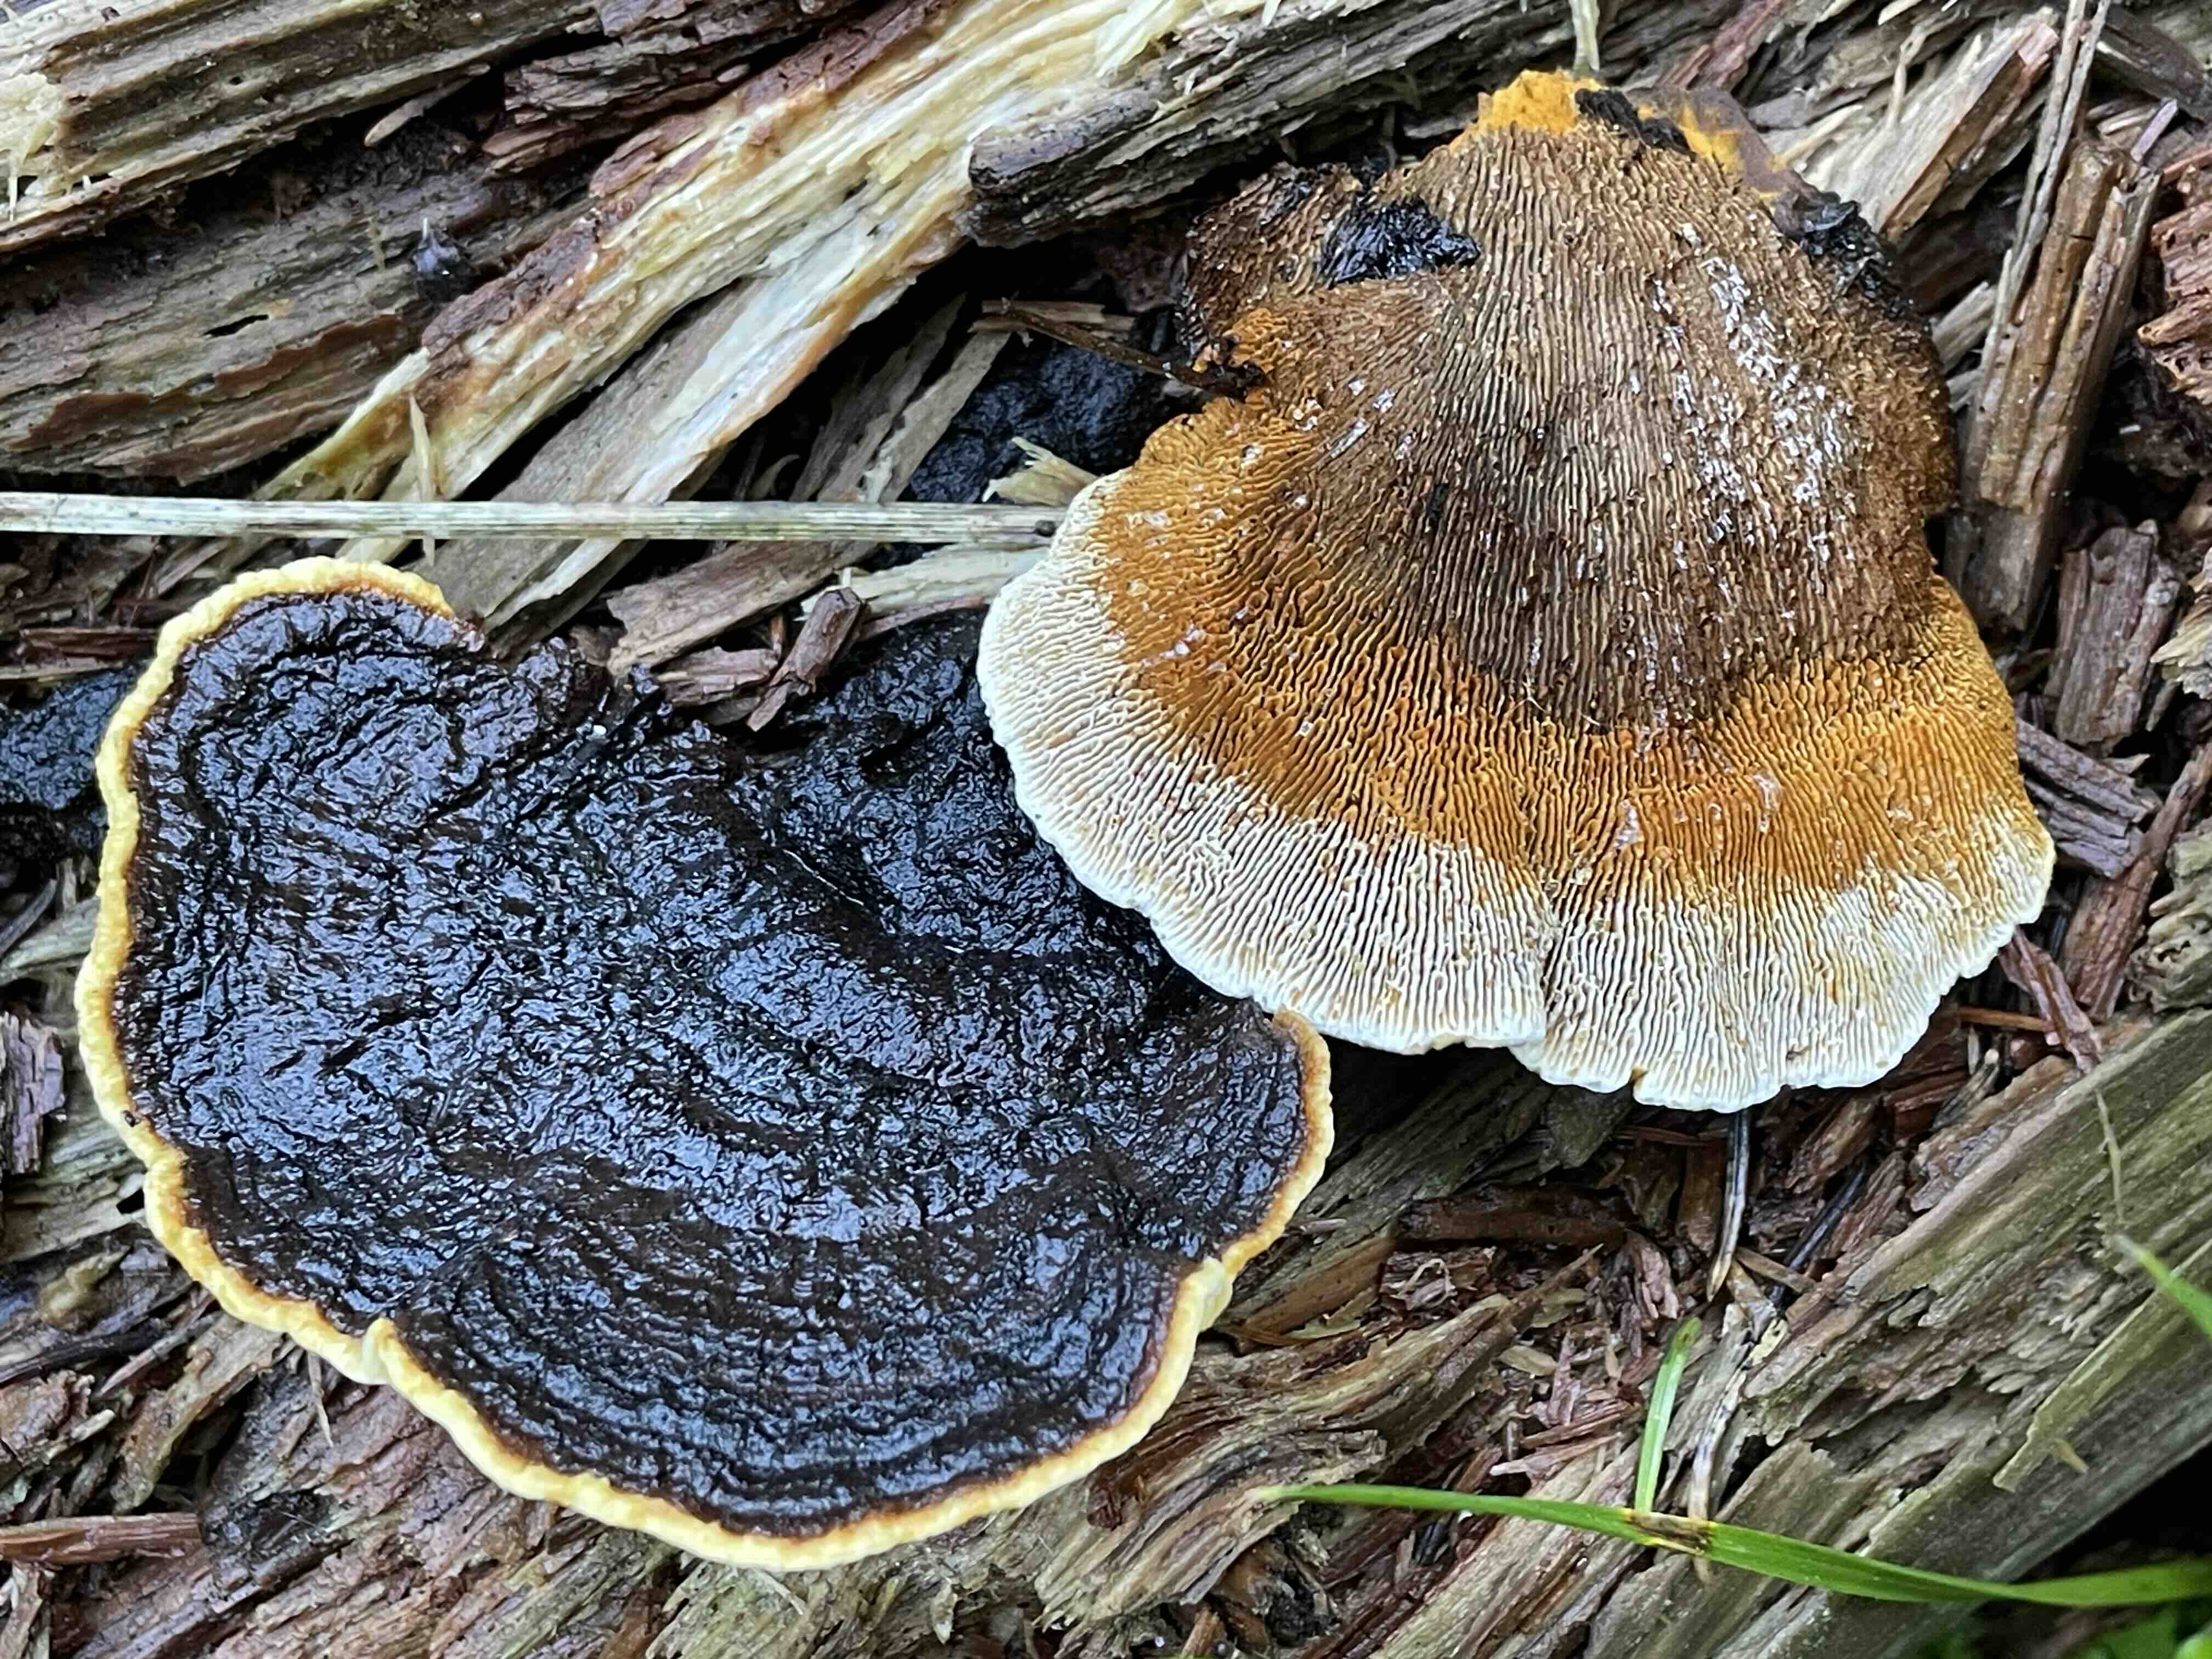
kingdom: Fungi
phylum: Basidiomycota
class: Agaricomycetes
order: Gloeophyllales
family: Gloeophyllaceae
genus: Gloeophyllum
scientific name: Gloeophyllum sepiarium
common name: fyrre-korkhat
